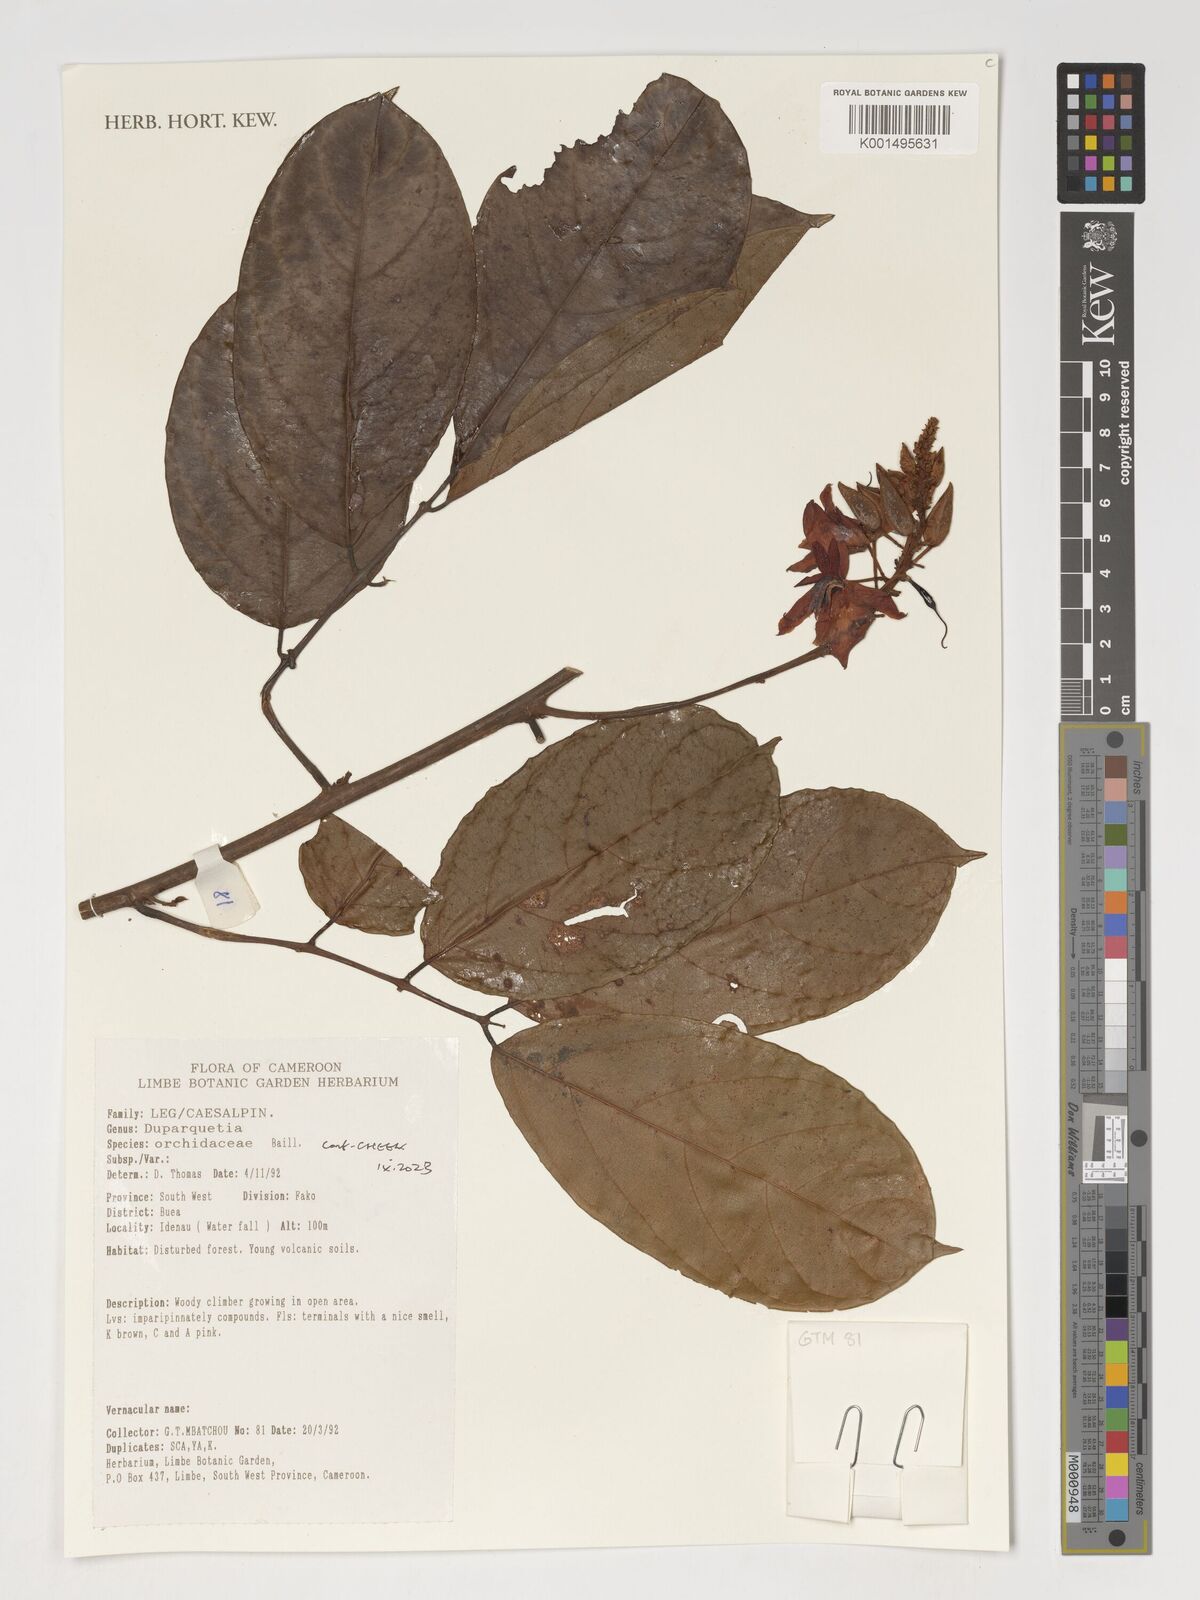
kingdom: Plantae
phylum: Tracheophyta
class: Magnoliopsida
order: Fabales
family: Fabaceae
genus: Duparquetia
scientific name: Duparquetia orchidacea
